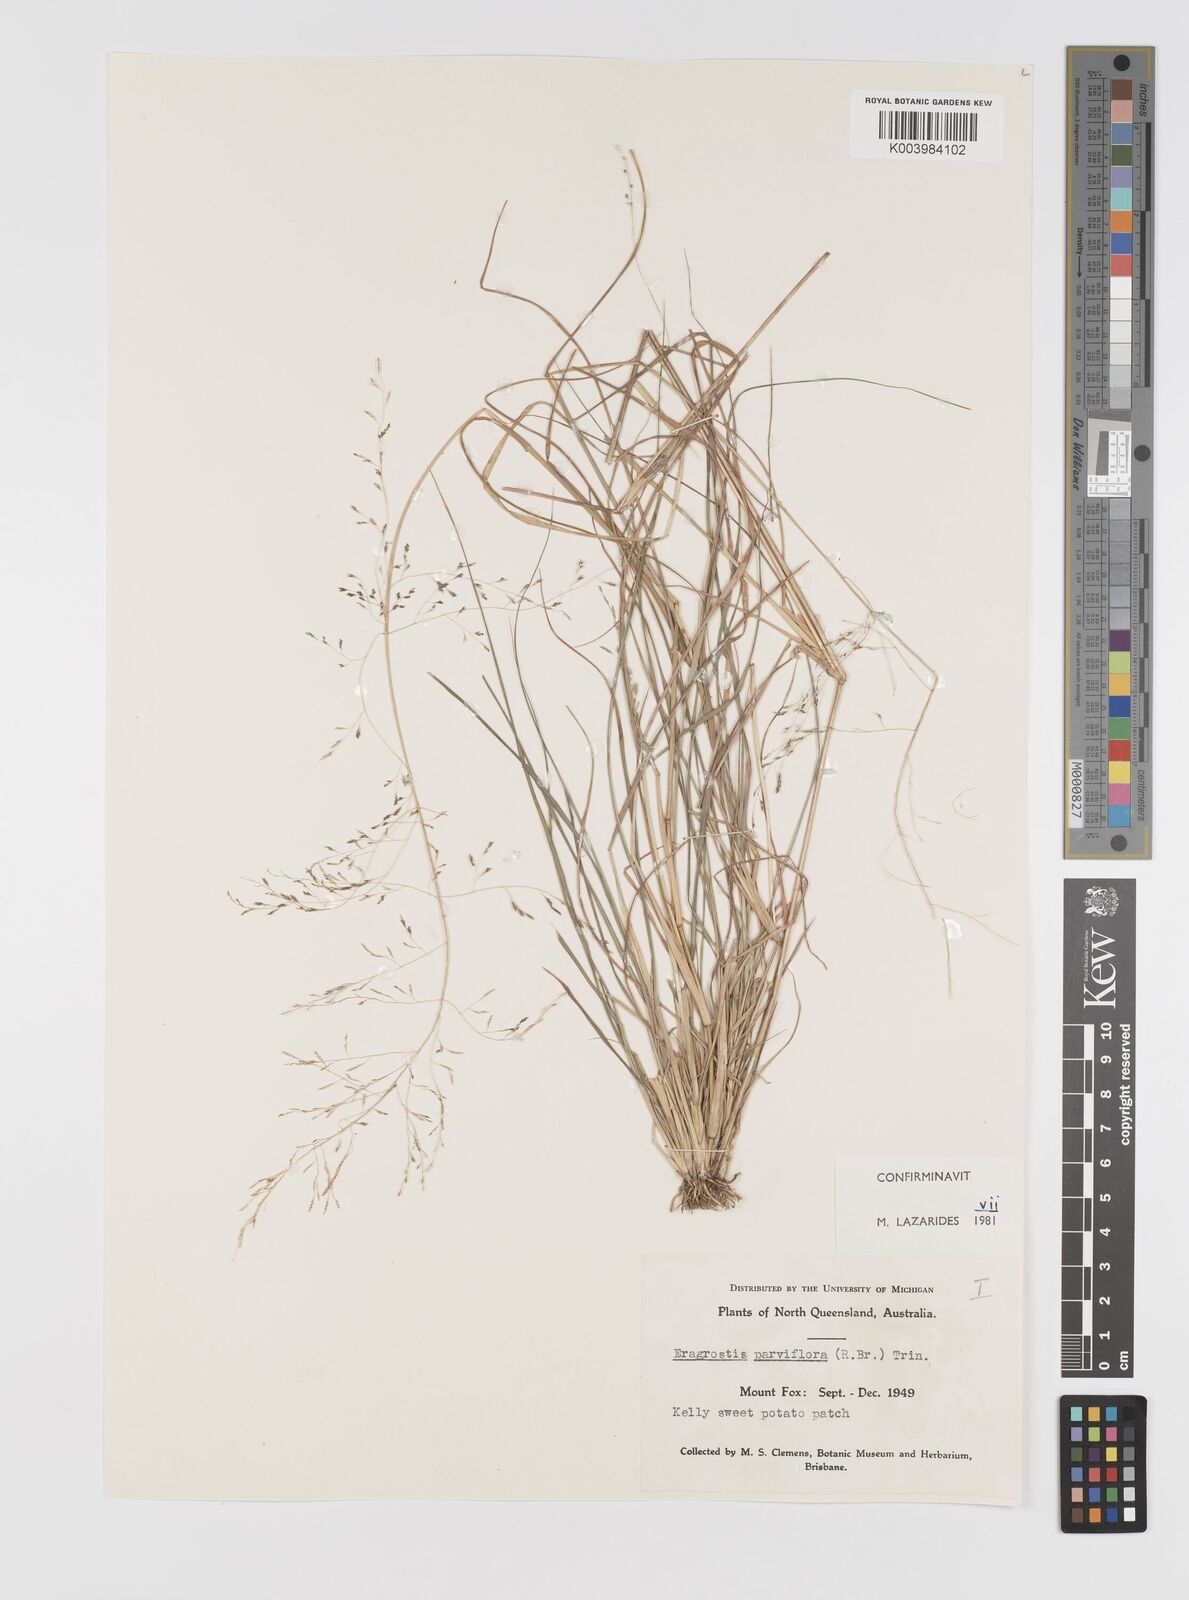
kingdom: Plantae
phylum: Tracheophyta
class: Liliopsida
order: Poales
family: Poaceae
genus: Eragrostis
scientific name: Eragrostis parviflora
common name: Weeping love-grass
